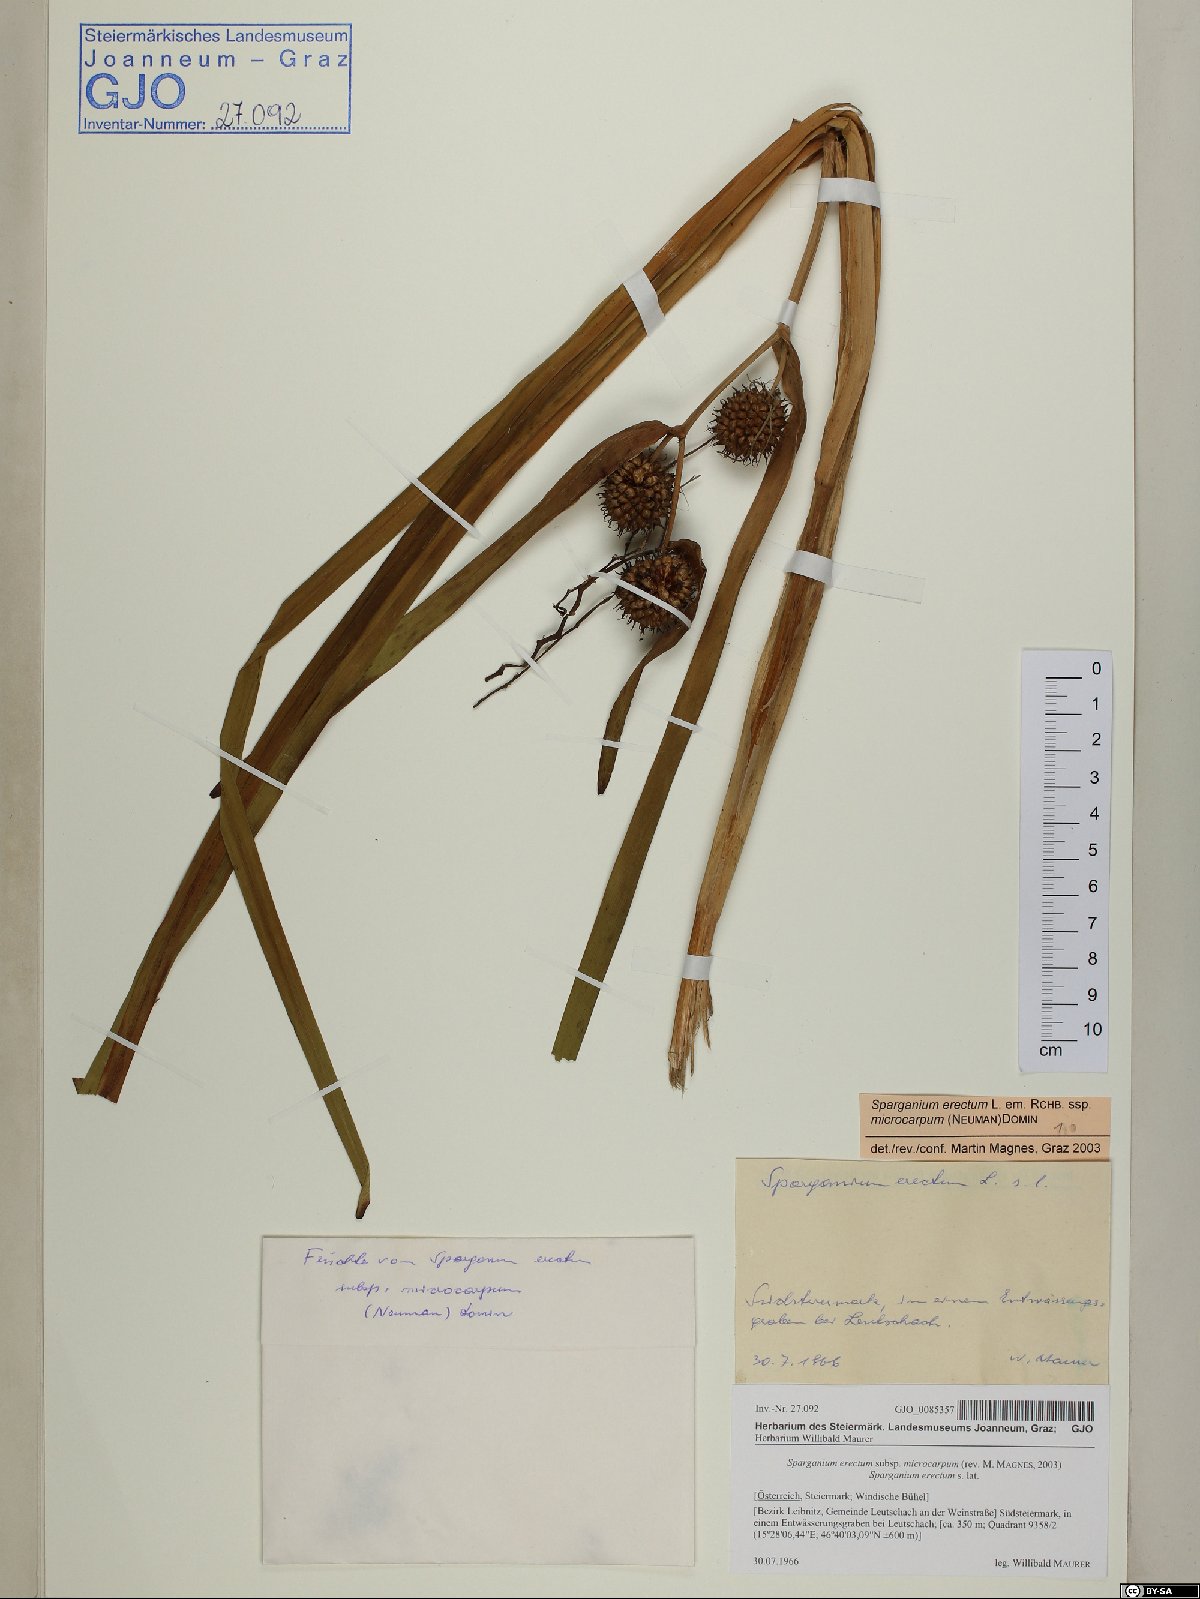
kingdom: Plantae
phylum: Tracheophyta
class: Liliopsida
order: Poales
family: Typhaceae
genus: Sparganium
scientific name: Sparganium erectum
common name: Branched bur-reed
